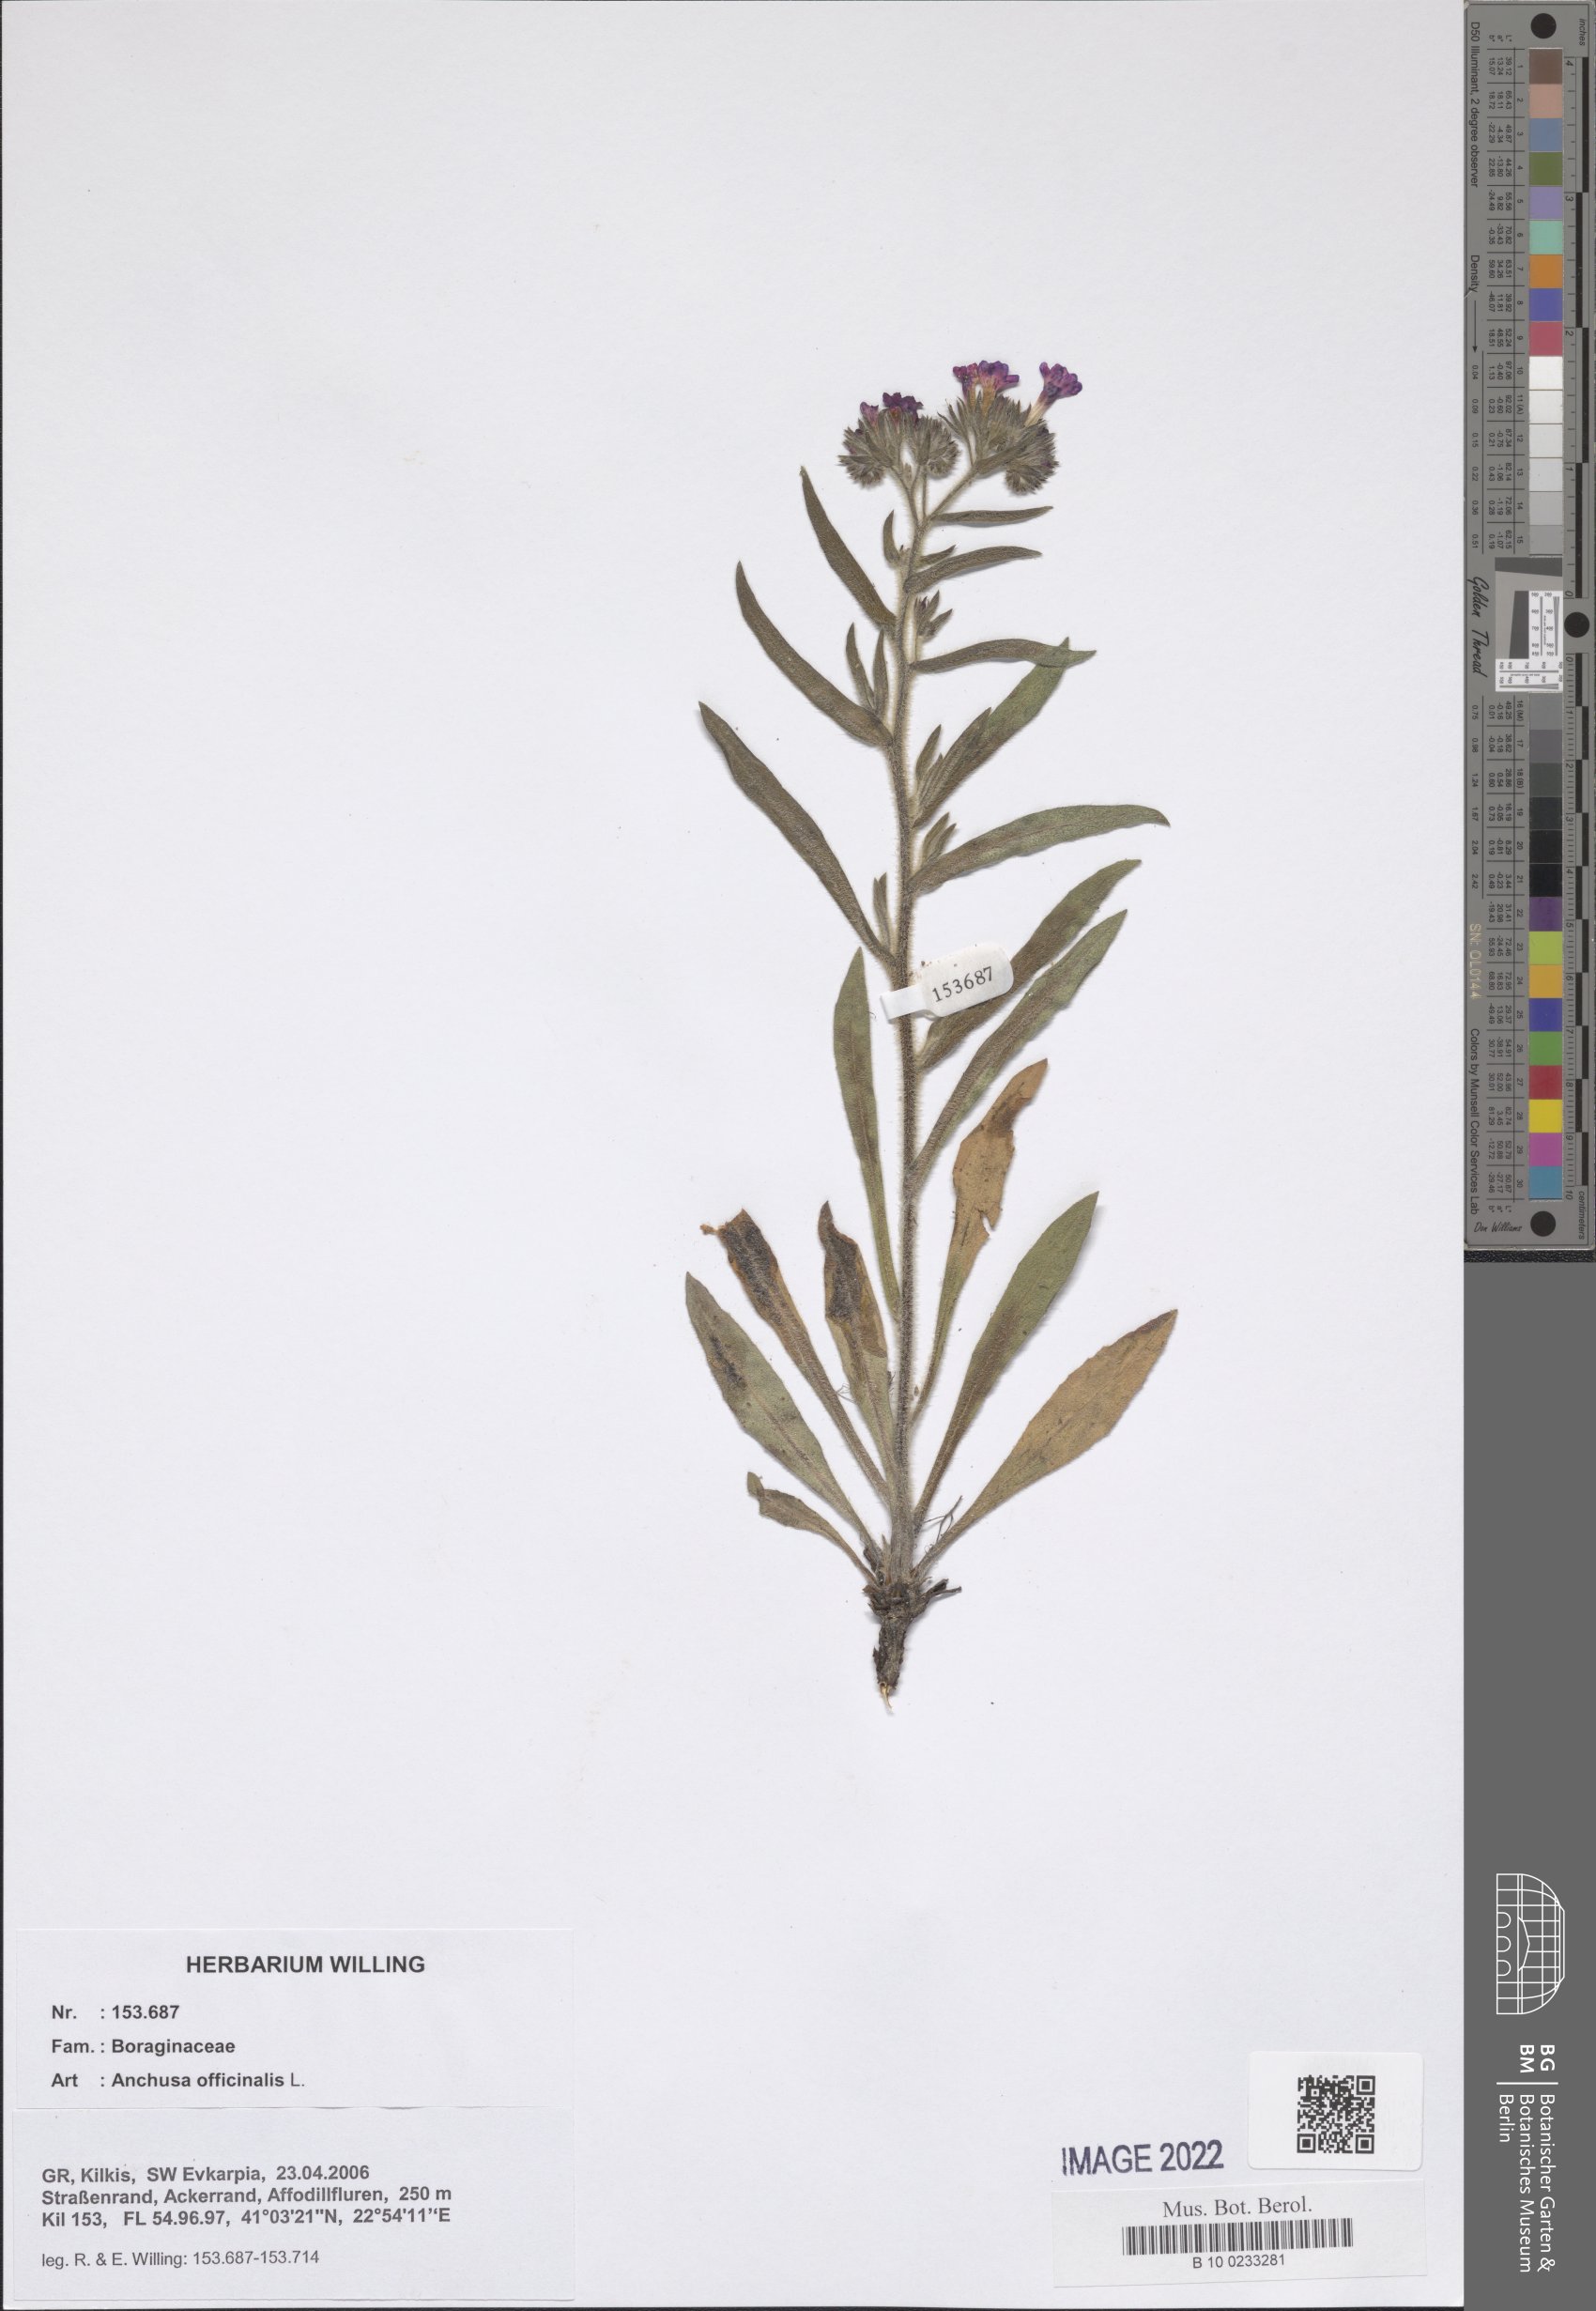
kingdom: Plantae
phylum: Tracheophyta
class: Magnoliopsida
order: Boraginales
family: Boraginaceae
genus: Anchusa
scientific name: Anchusa officinalis
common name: Alkanet
